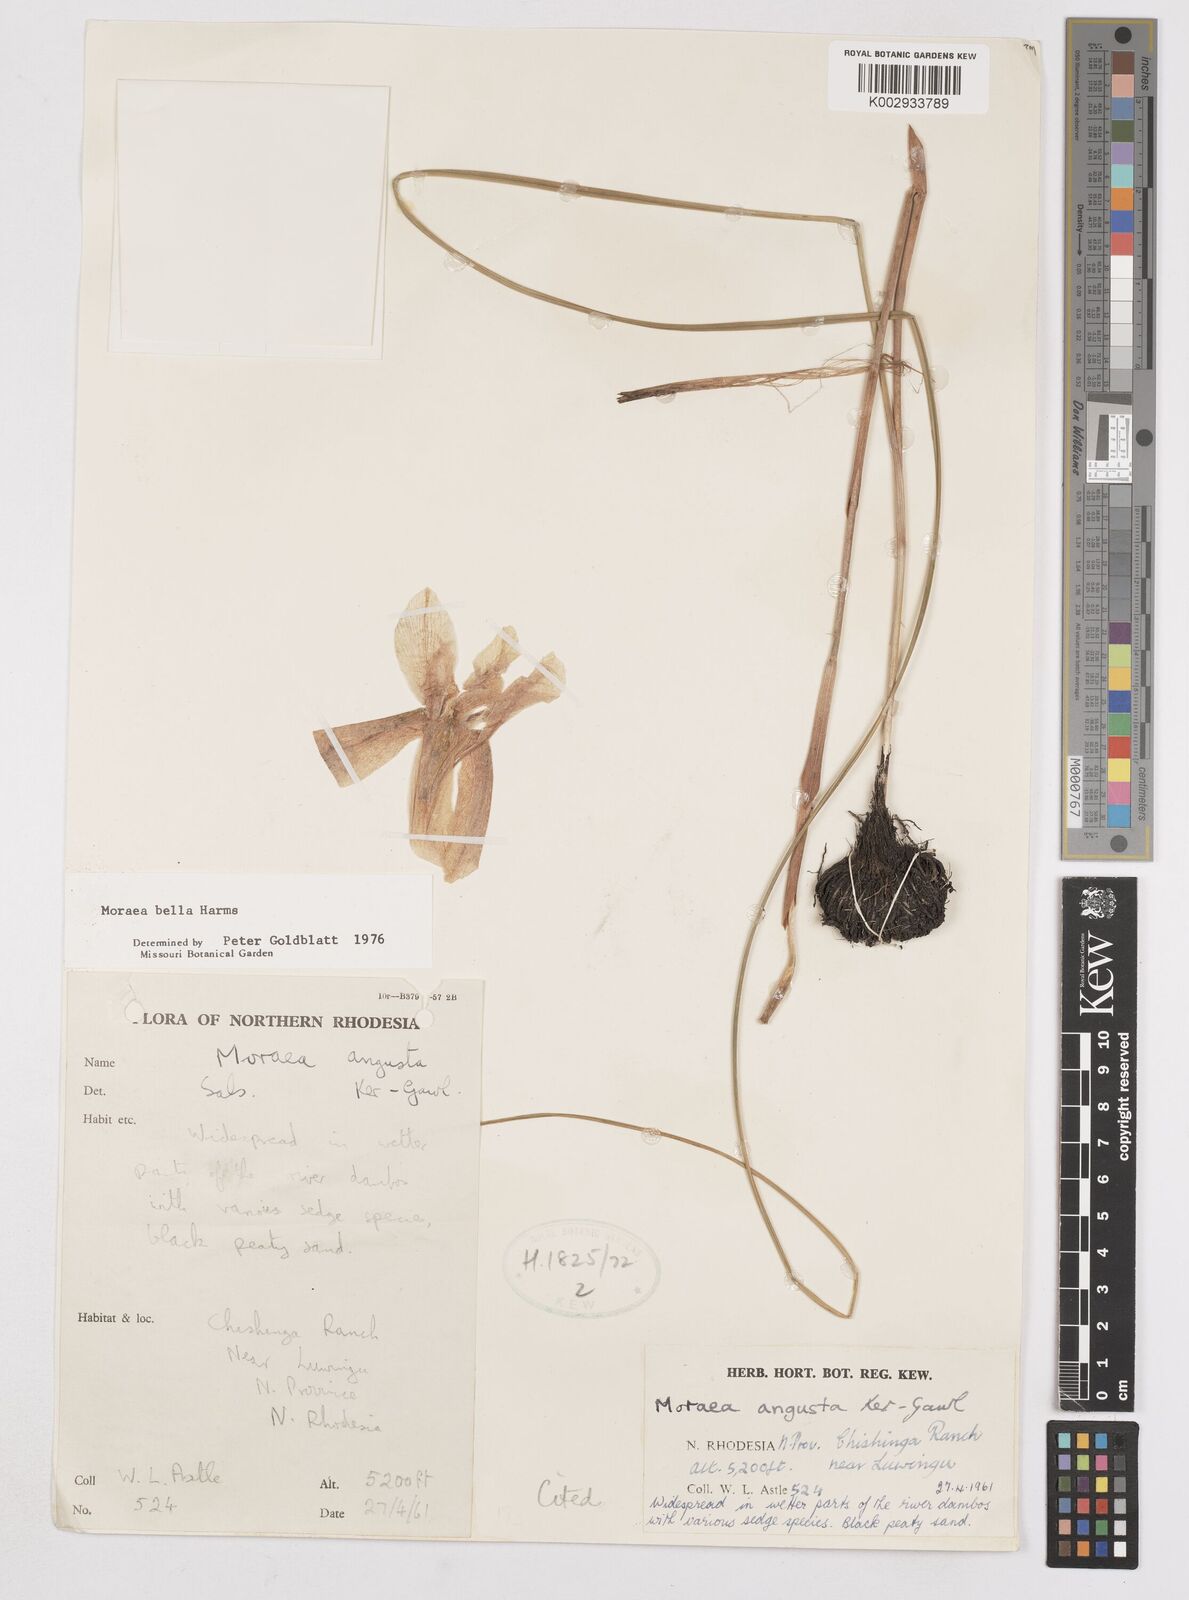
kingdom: Plantae
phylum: Tracheophyta
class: Liliopsida
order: Asparagales
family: Iridaceae
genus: Moraea
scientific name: Moraea bella
